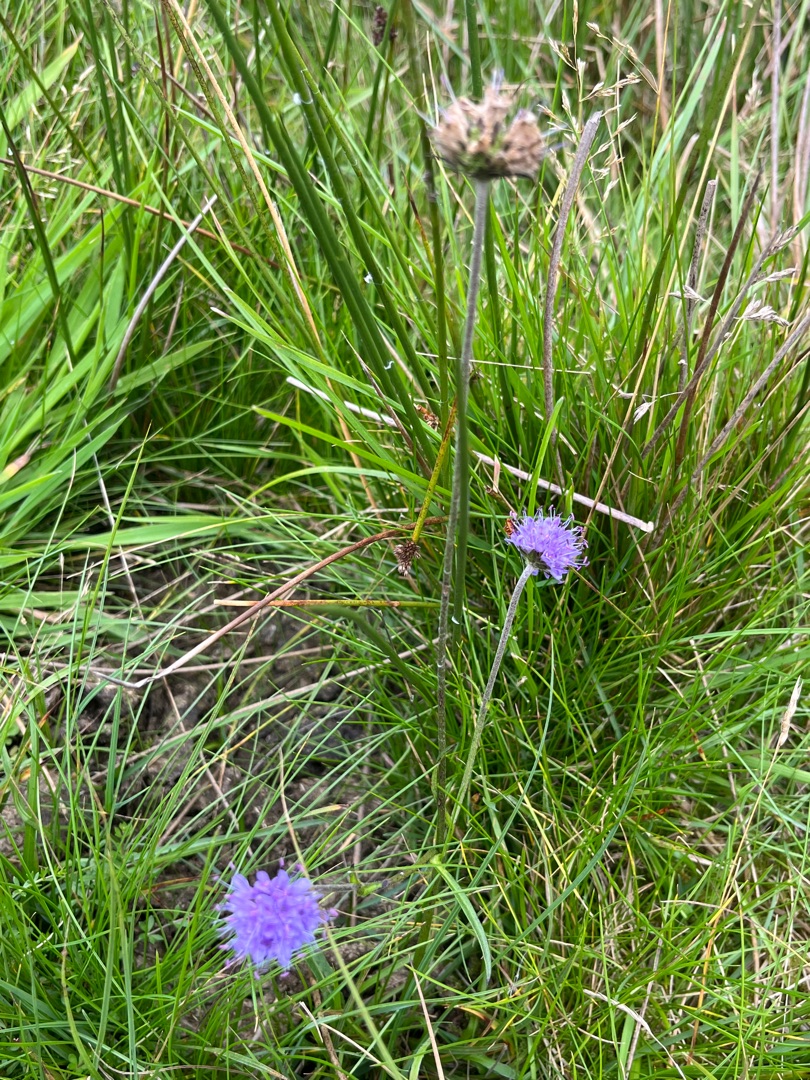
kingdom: Plantae
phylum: Tracheophyta
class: Magnoliopsida
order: Dipsacales
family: Caprifoliaceae
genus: Succisa
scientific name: Succisa pratensis
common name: Djævelsbid
